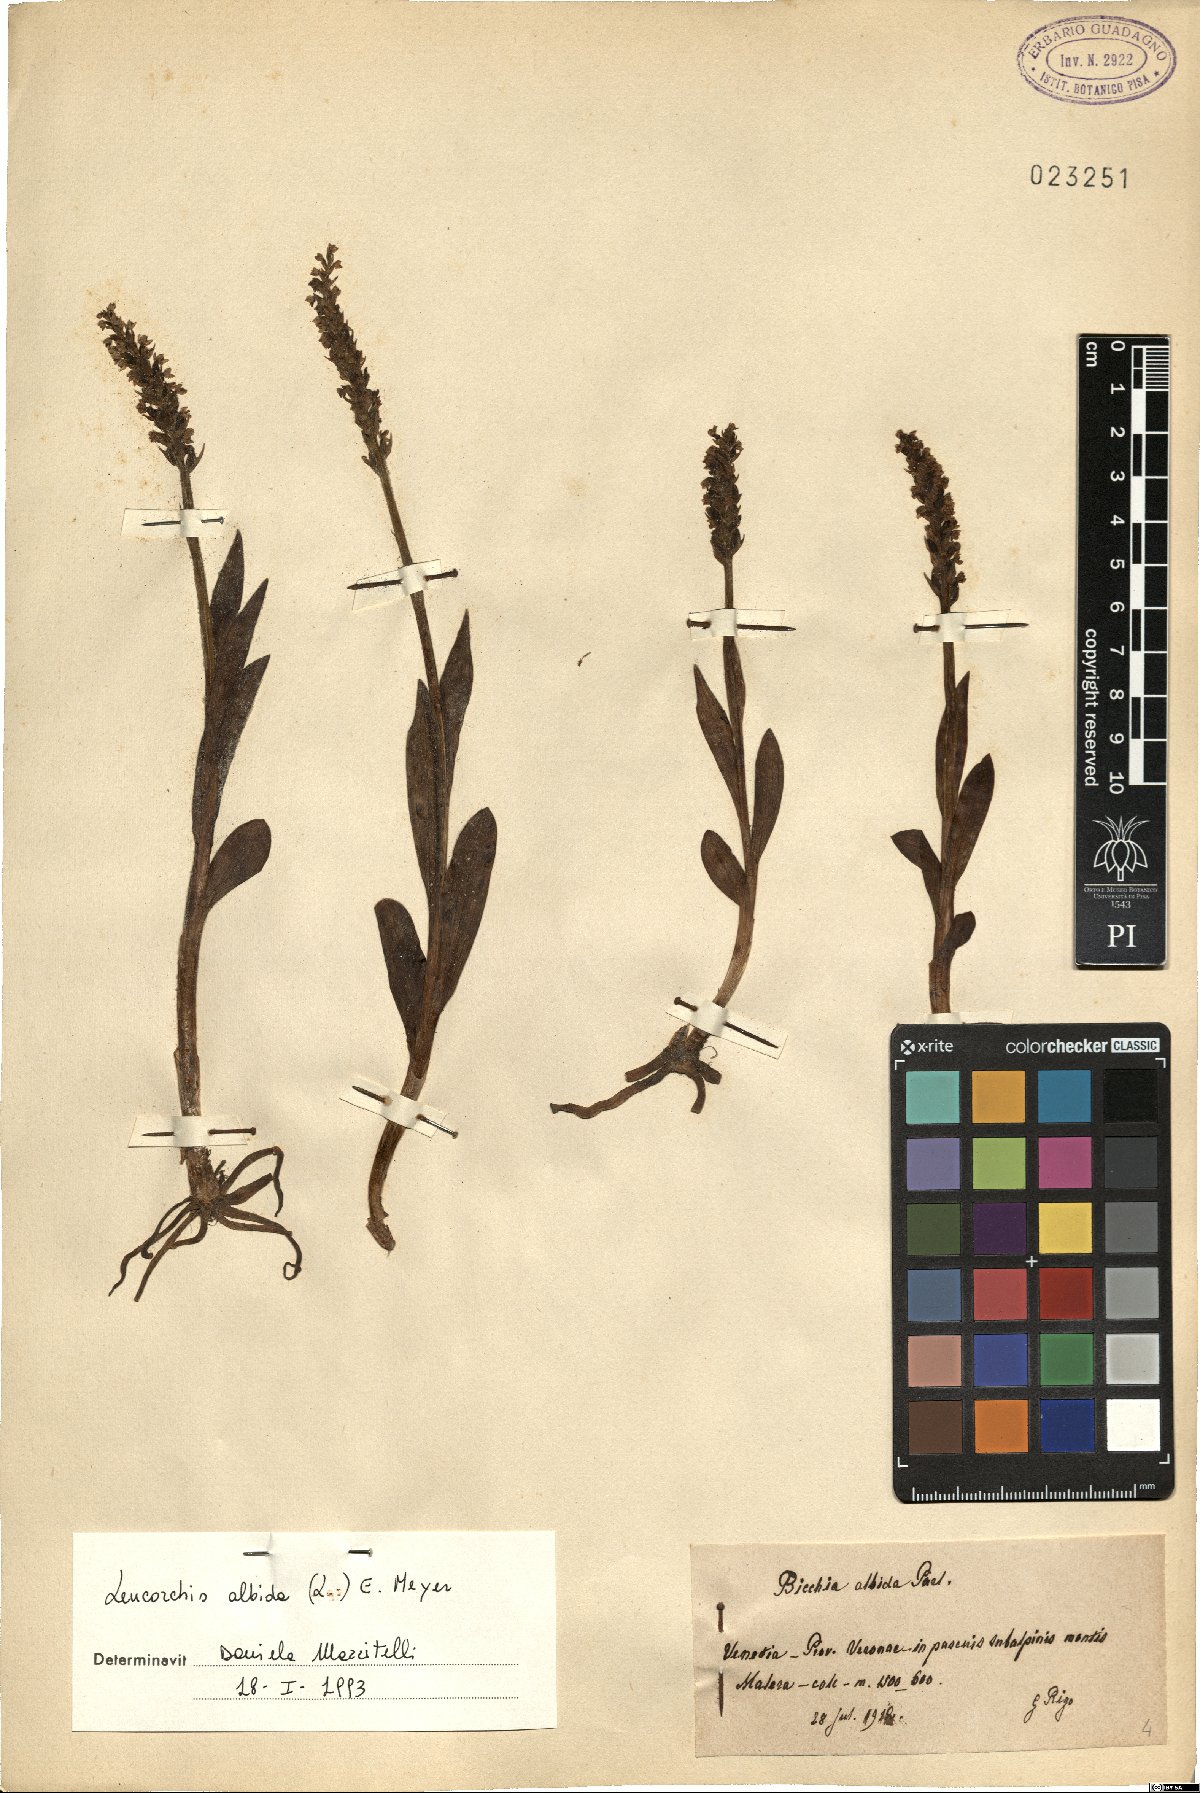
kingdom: Plantae
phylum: Tracheophyta
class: Liliopsida
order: Asparagales
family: Orchidaceae
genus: Pseudorchis
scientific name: Pseudorchis albida
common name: Small-white orchid
